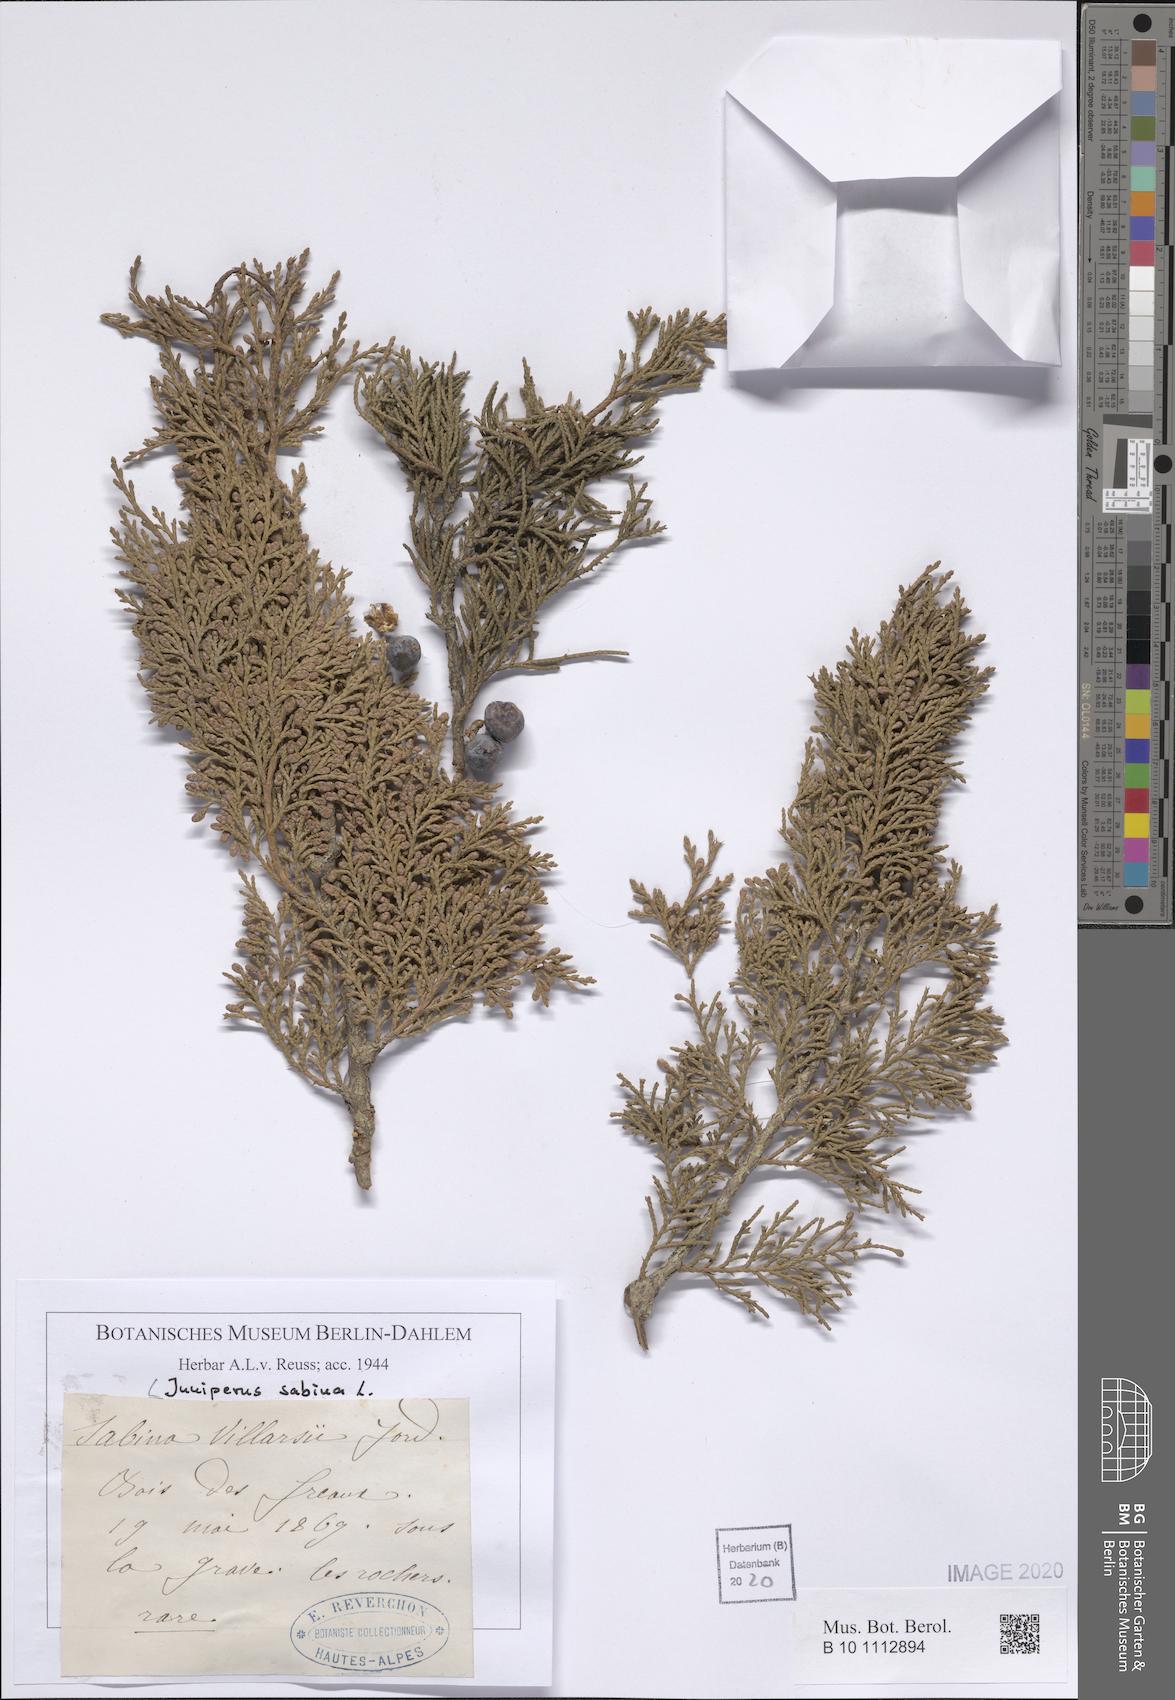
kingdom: Plantae
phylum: Tracheophyta
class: Pinopsida
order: Pinales
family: Cupressaceae
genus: Juniperus
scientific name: Juniperus sabina
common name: Savin
